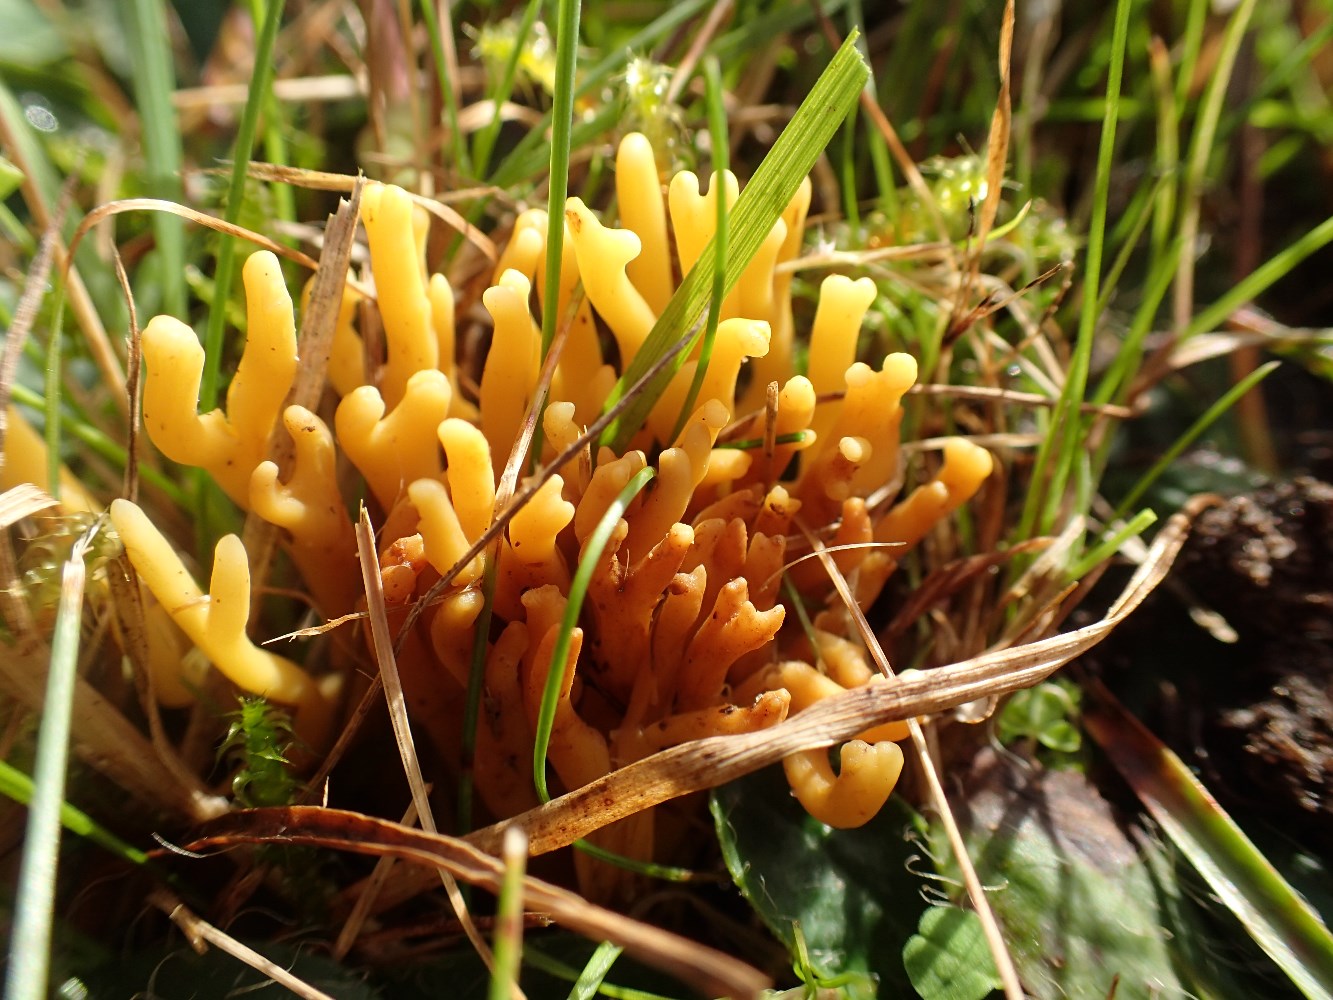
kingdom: Fungi
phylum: Basidiomycota
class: Agaricomycetes
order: Agaricales
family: Clavariaceae
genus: Clavulinopsis
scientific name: Clavulinopsis corniculata
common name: eng-køllesvamp
